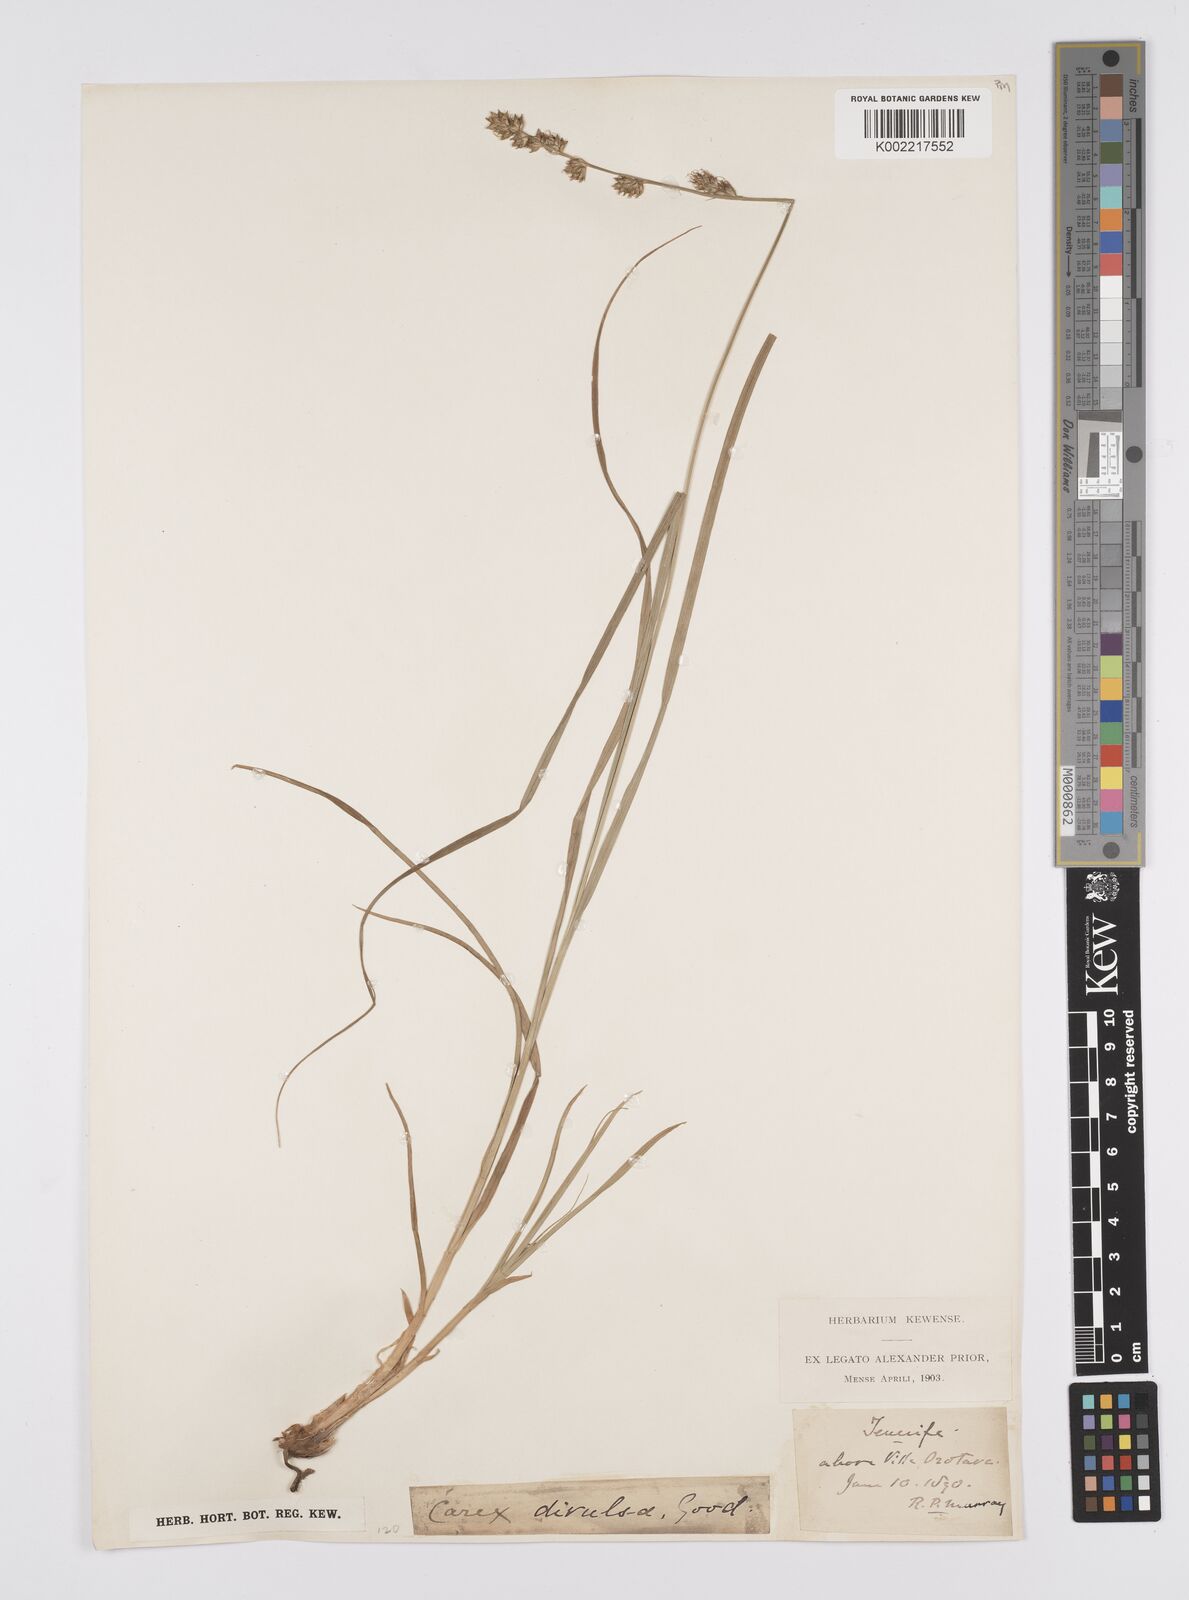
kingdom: Plantae
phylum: Tracheophyta
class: Liliopsida
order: Poales
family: Cyperaceae
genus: Carex
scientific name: Carex divulsa
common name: Grassland sedge
